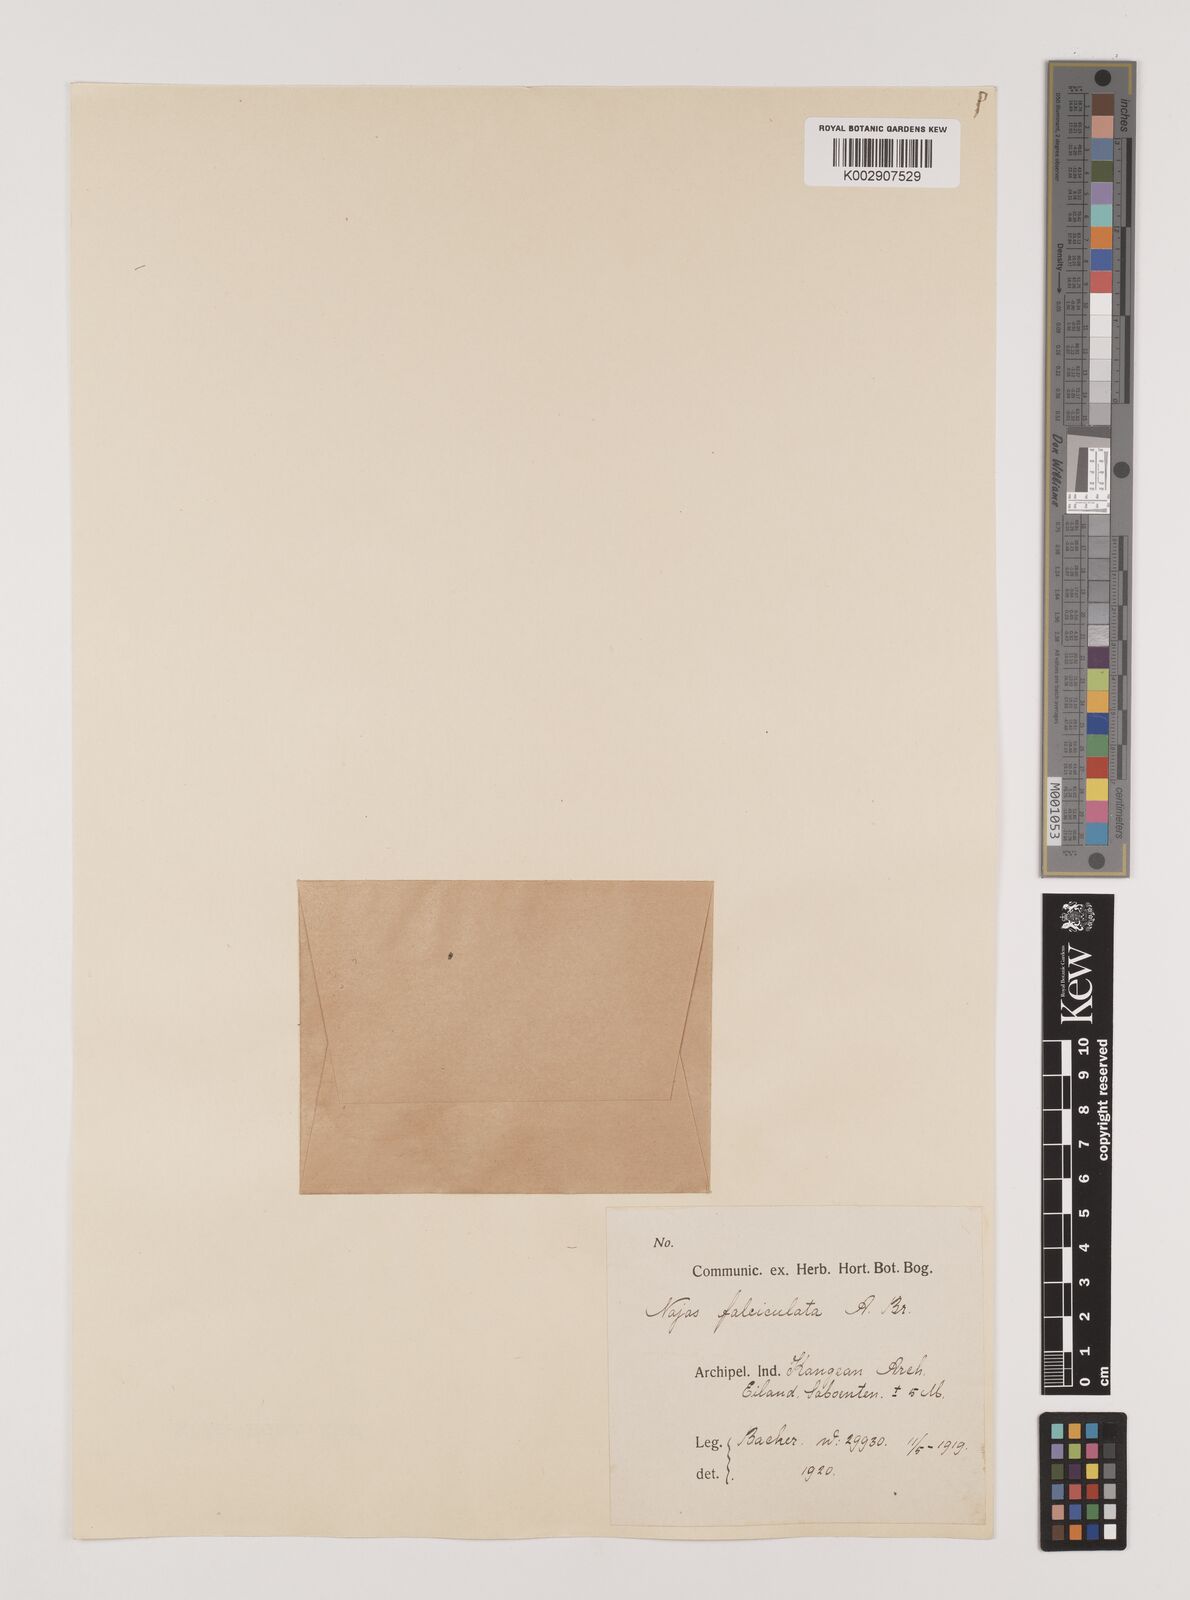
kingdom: Plantae
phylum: Tracheophyta
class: Liliopsida
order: Alismatales
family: Hydrocharitaceae
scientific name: Hydrocharitaceae
